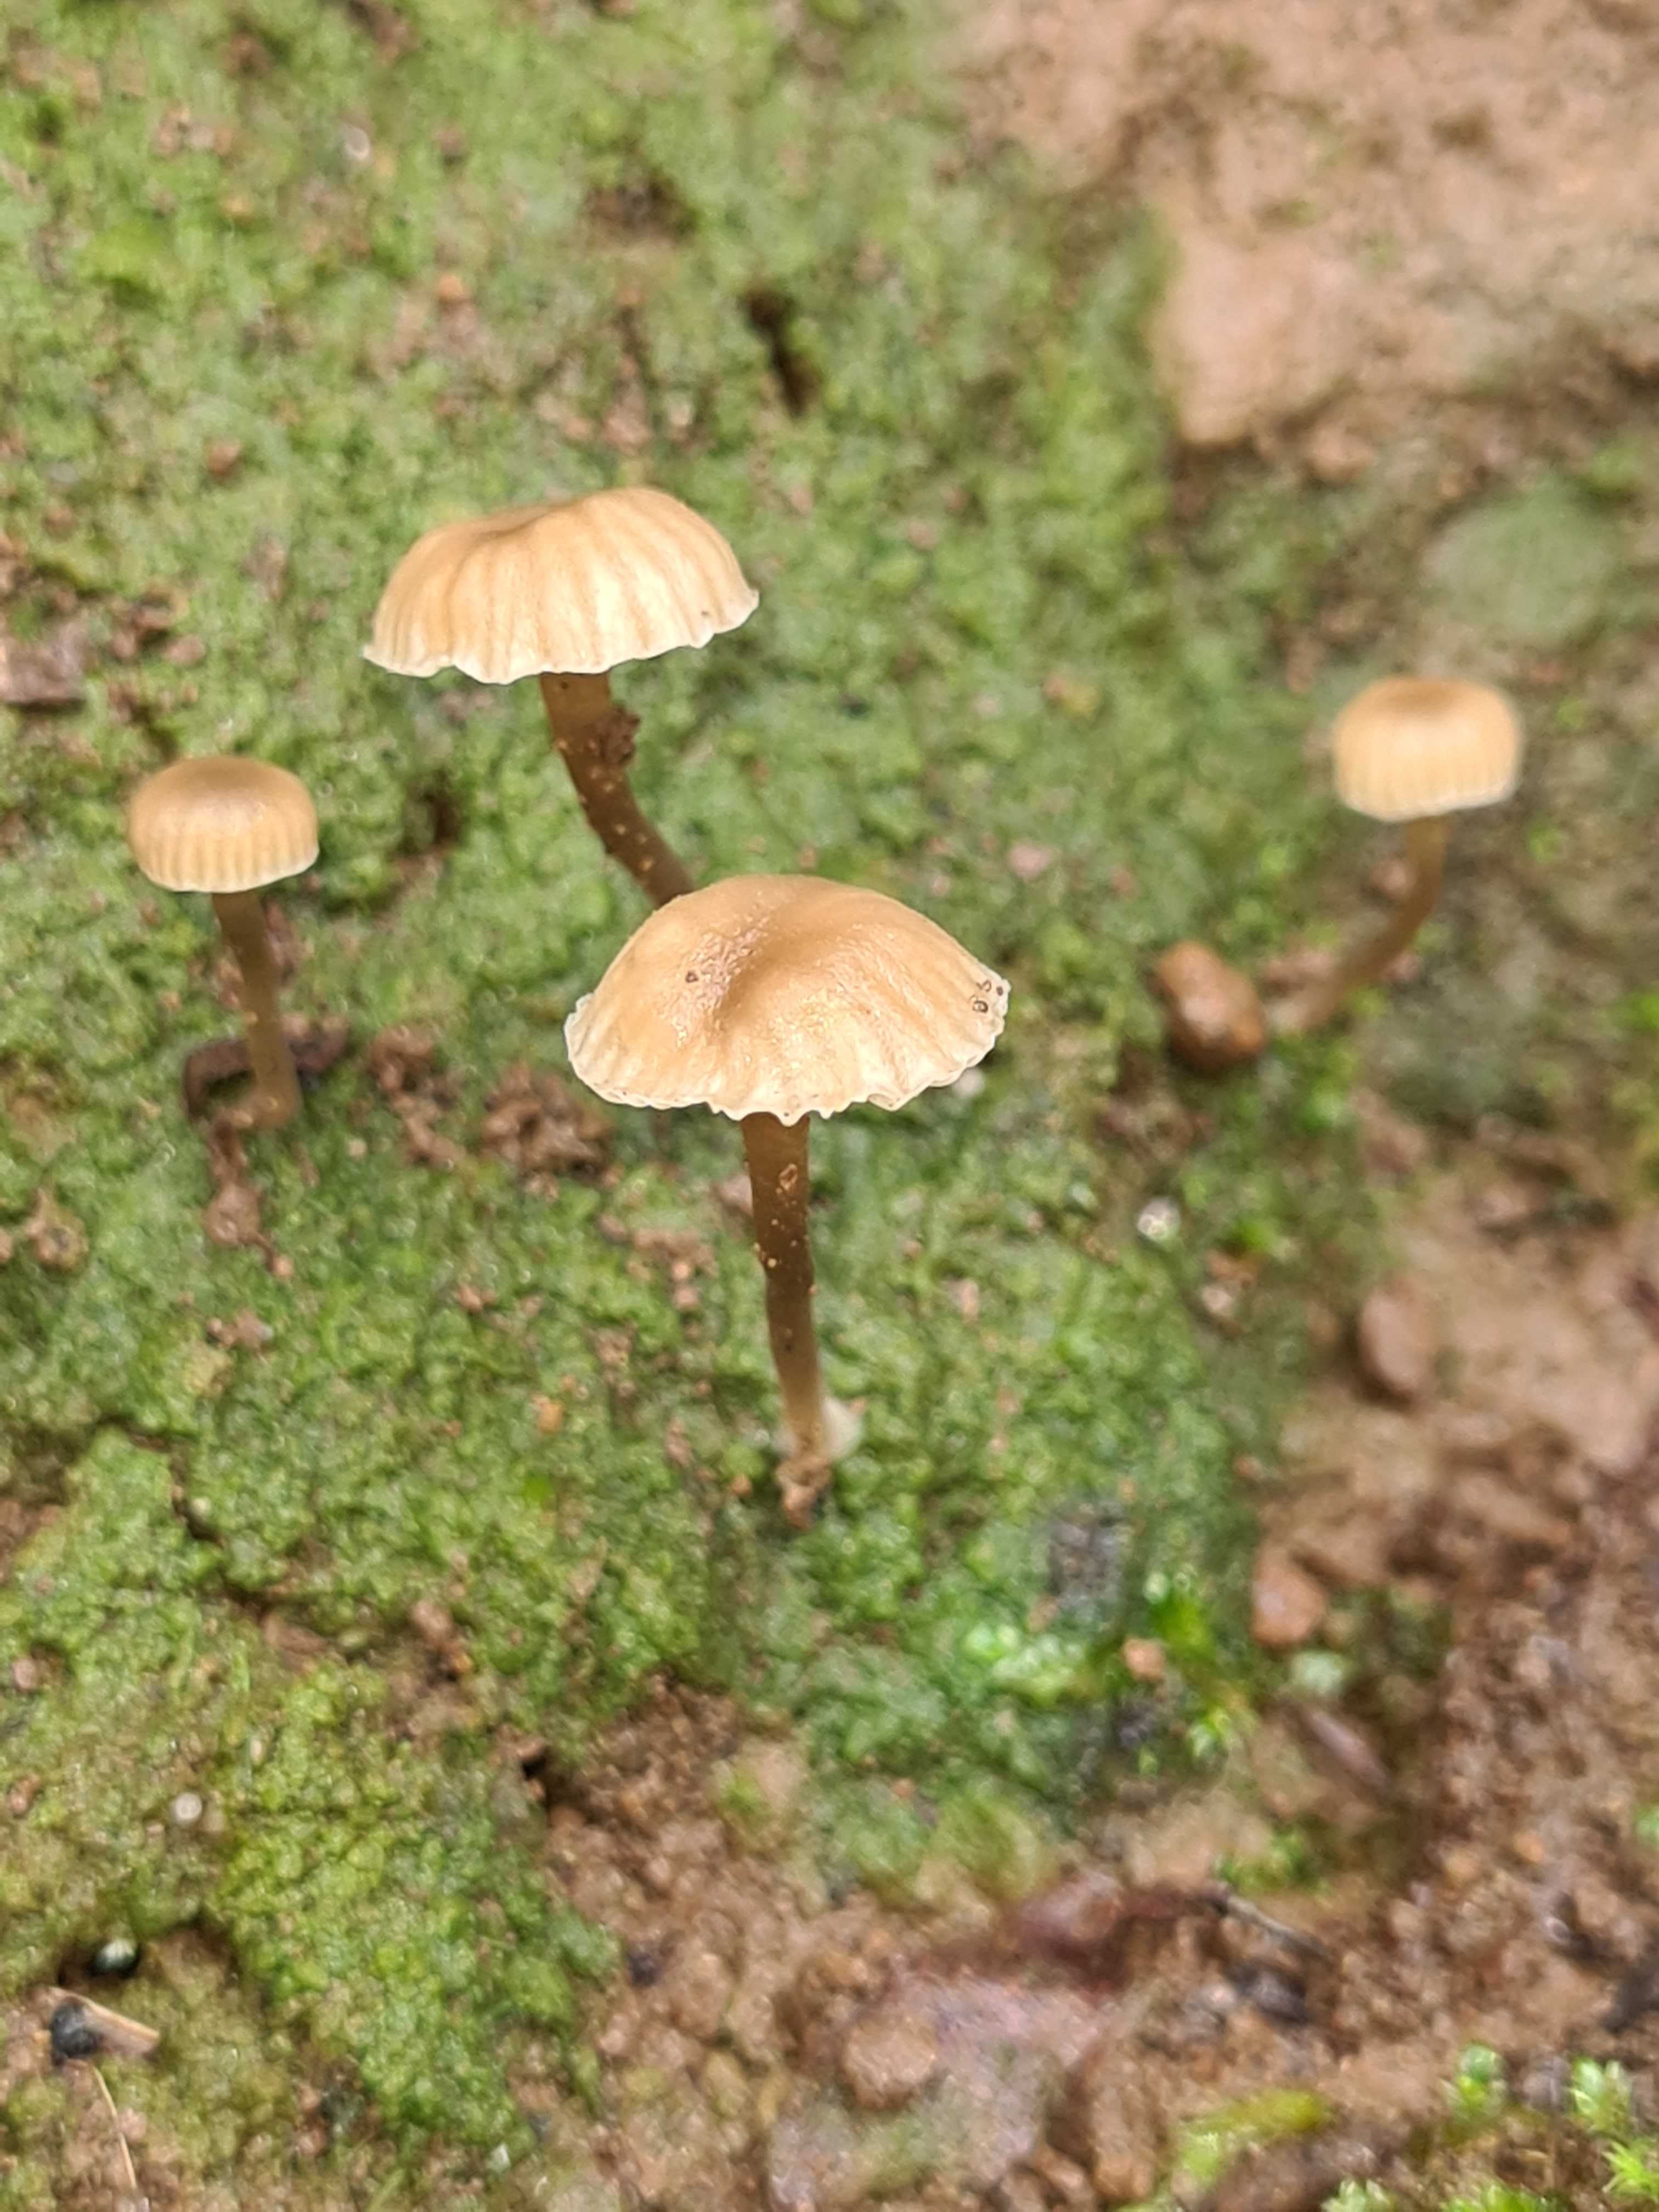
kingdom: Fungi
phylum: Basidiomycota
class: Agaricomycetes
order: Agaricales
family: Hygrophoraceae
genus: Lichenomphalia
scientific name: Lichenomphalia velutina
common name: dunet lavhat
